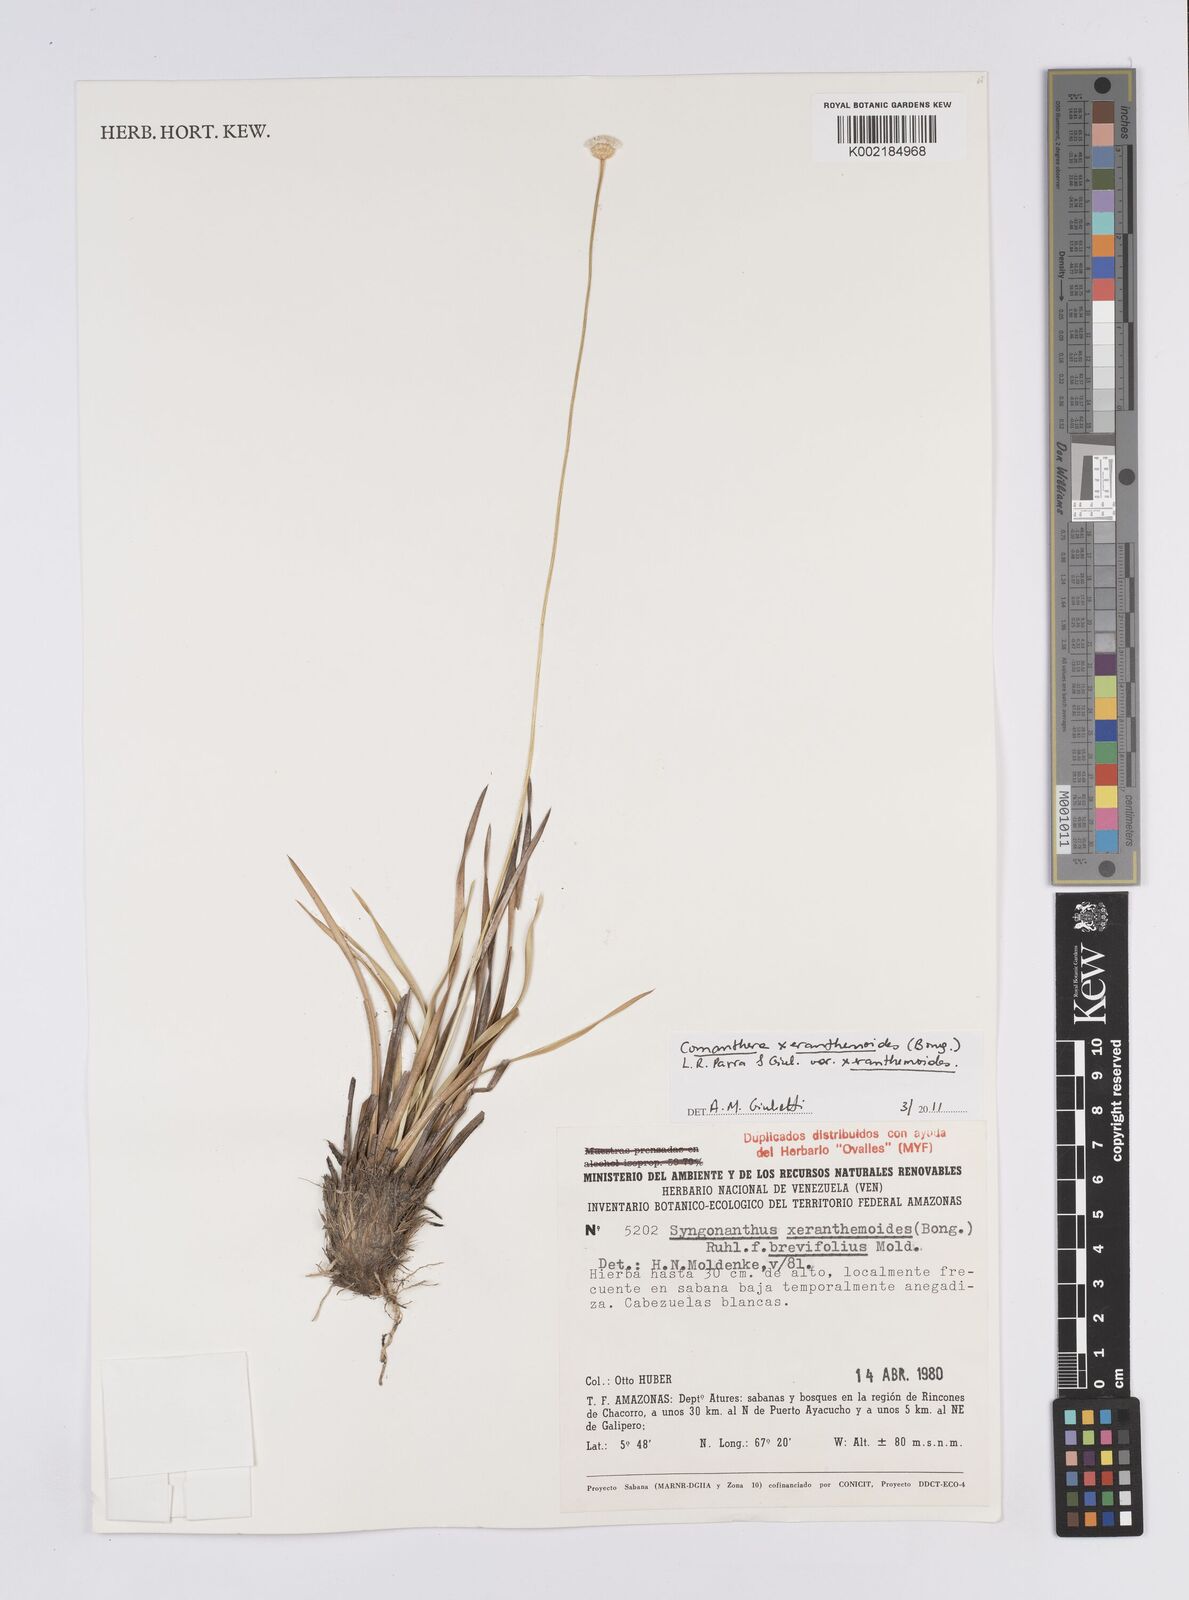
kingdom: Plantae
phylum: Tracheophyta
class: Liliopsida
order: Poales
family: Eriocaulaceae
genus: Comanthera
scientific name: Comanthera xeranthemoides
